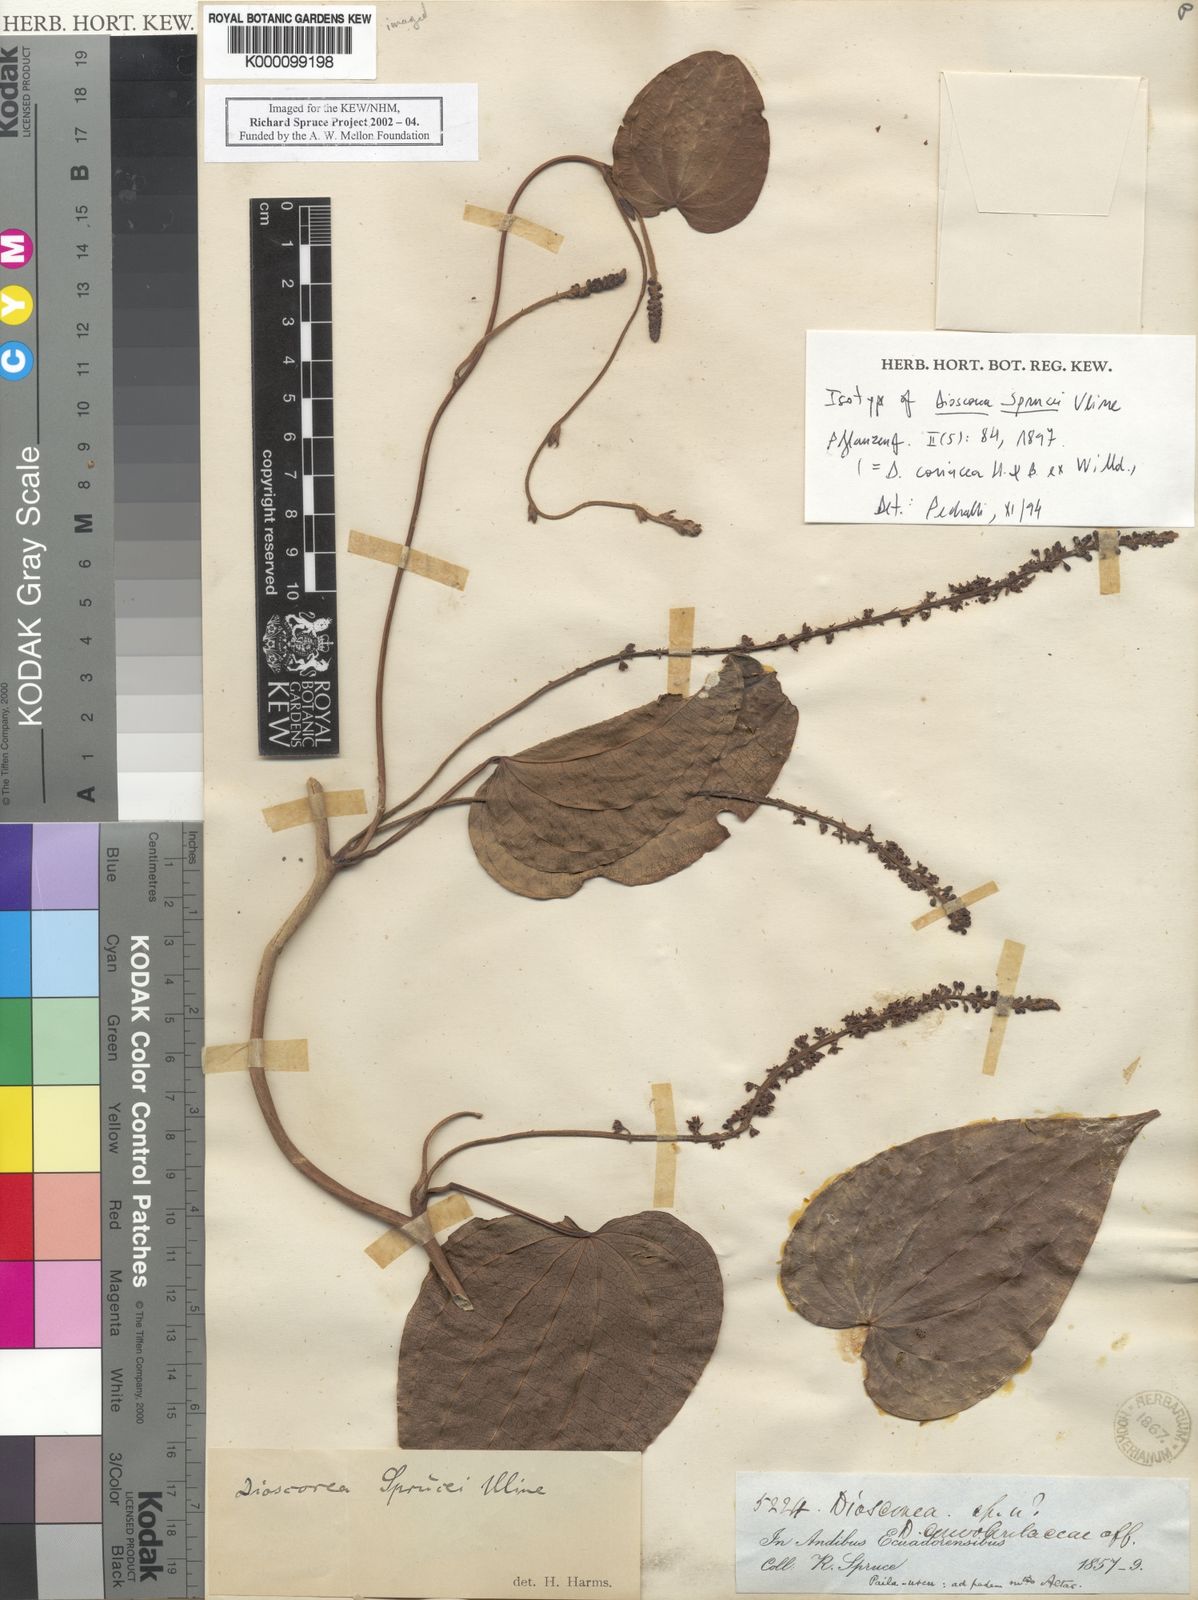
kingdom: Plantae
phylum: Tracheophyta
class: Liliopsida
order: Dioscoreales
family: Dioscoreaceae
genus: Dioscorea
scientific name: Dioscorea
